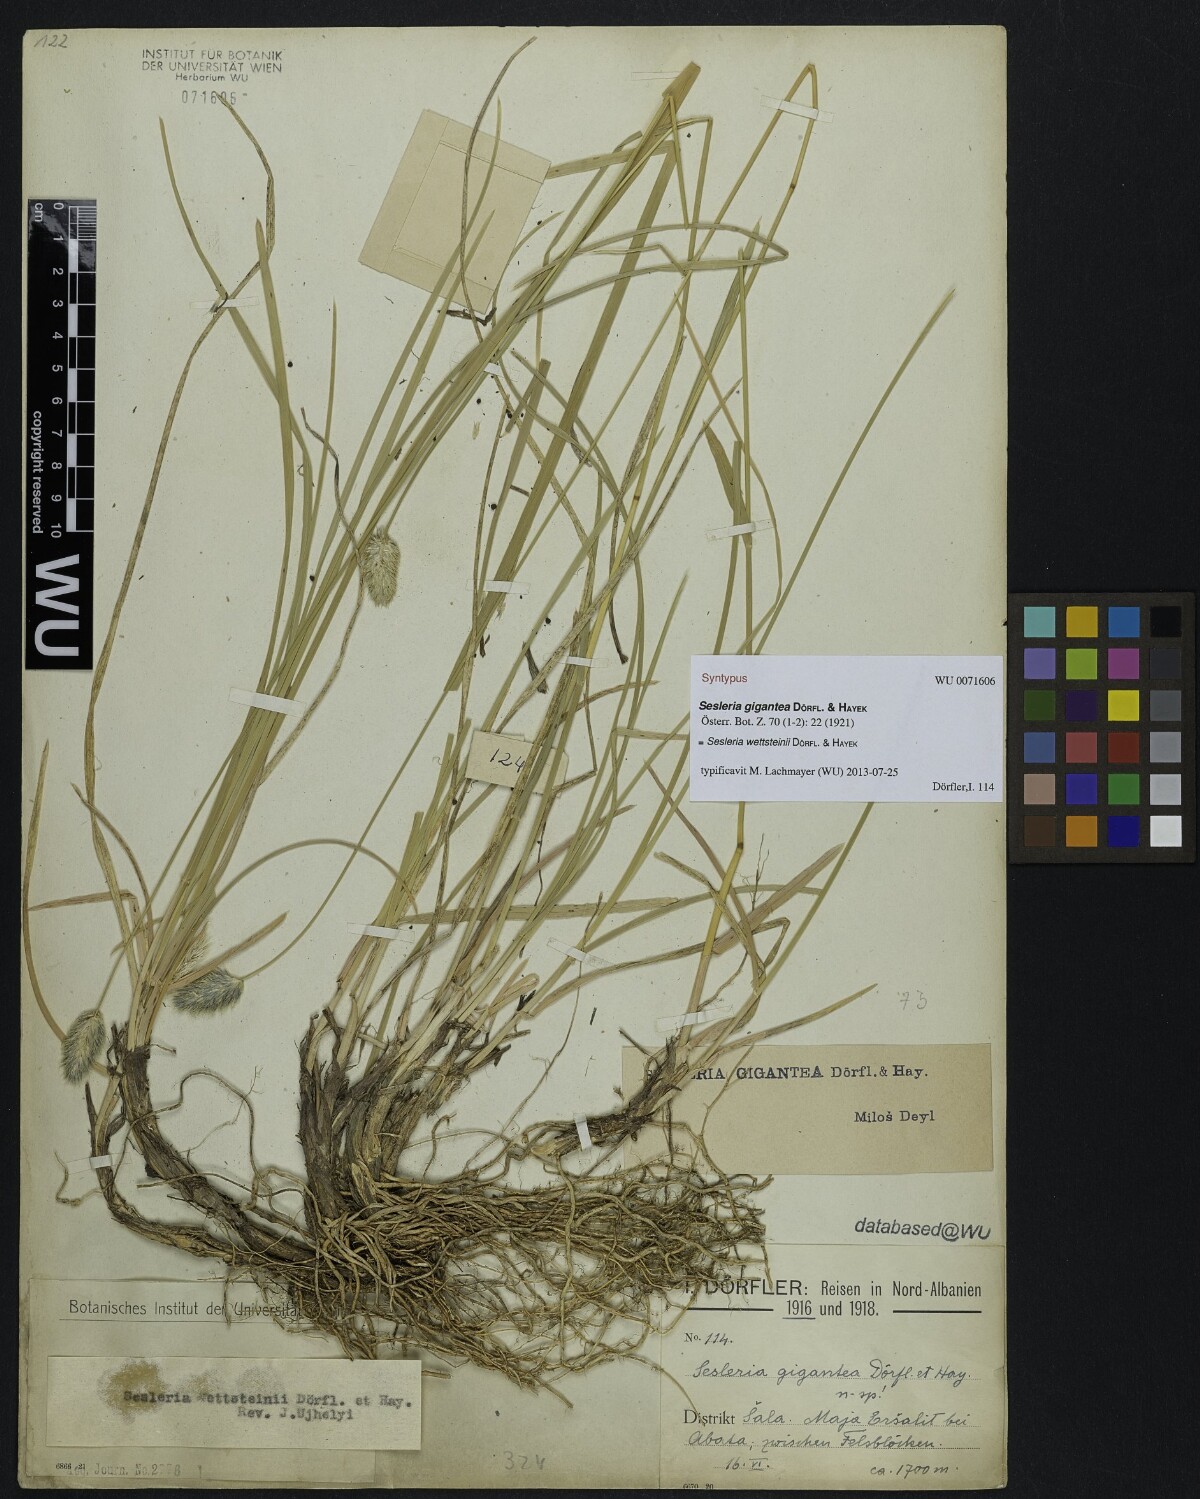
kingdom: Plantae
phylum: Tracheophyta
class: Liliopsida
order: Poales
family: Poaceae
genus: Sesleria
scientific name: Sesleria wettsteinii
